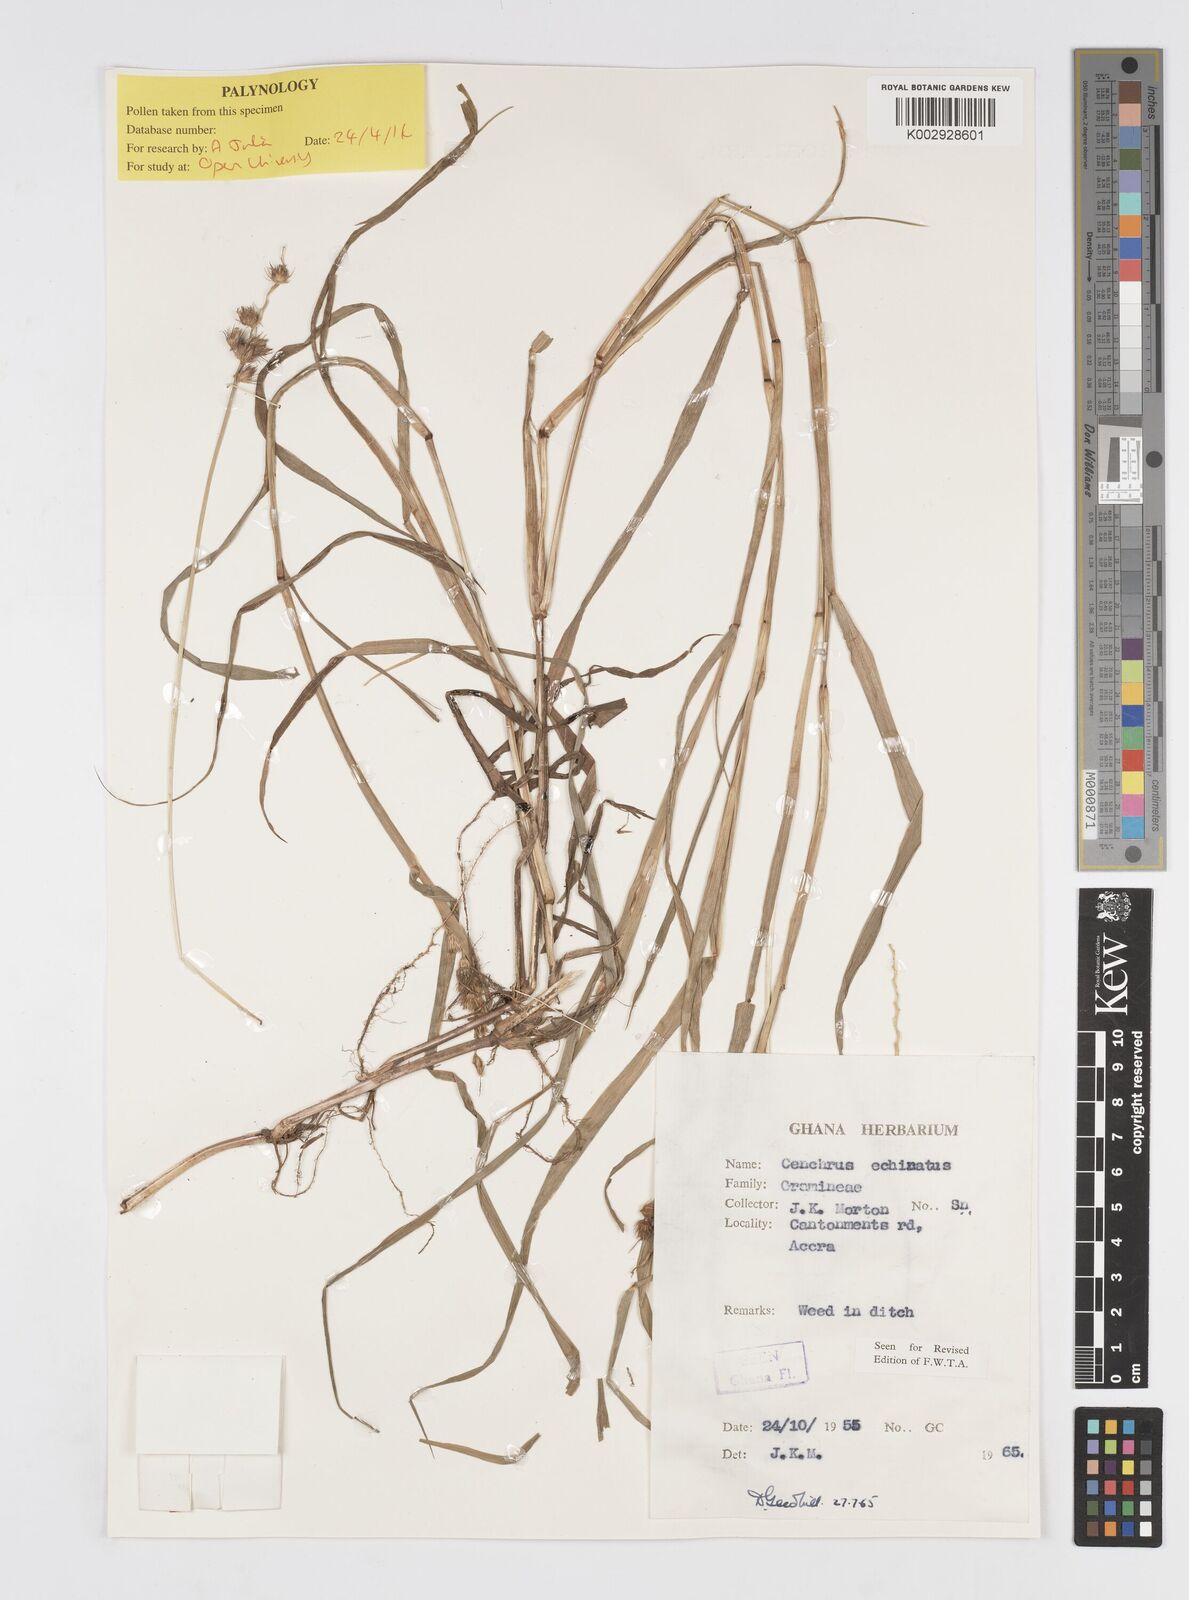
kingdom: Plantae
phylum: Tracheophyta
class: Liliopsida
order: Poales
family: Poaceae
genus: Cenchrus
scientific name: Cenchrus echinatus
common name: Southern sandbur
